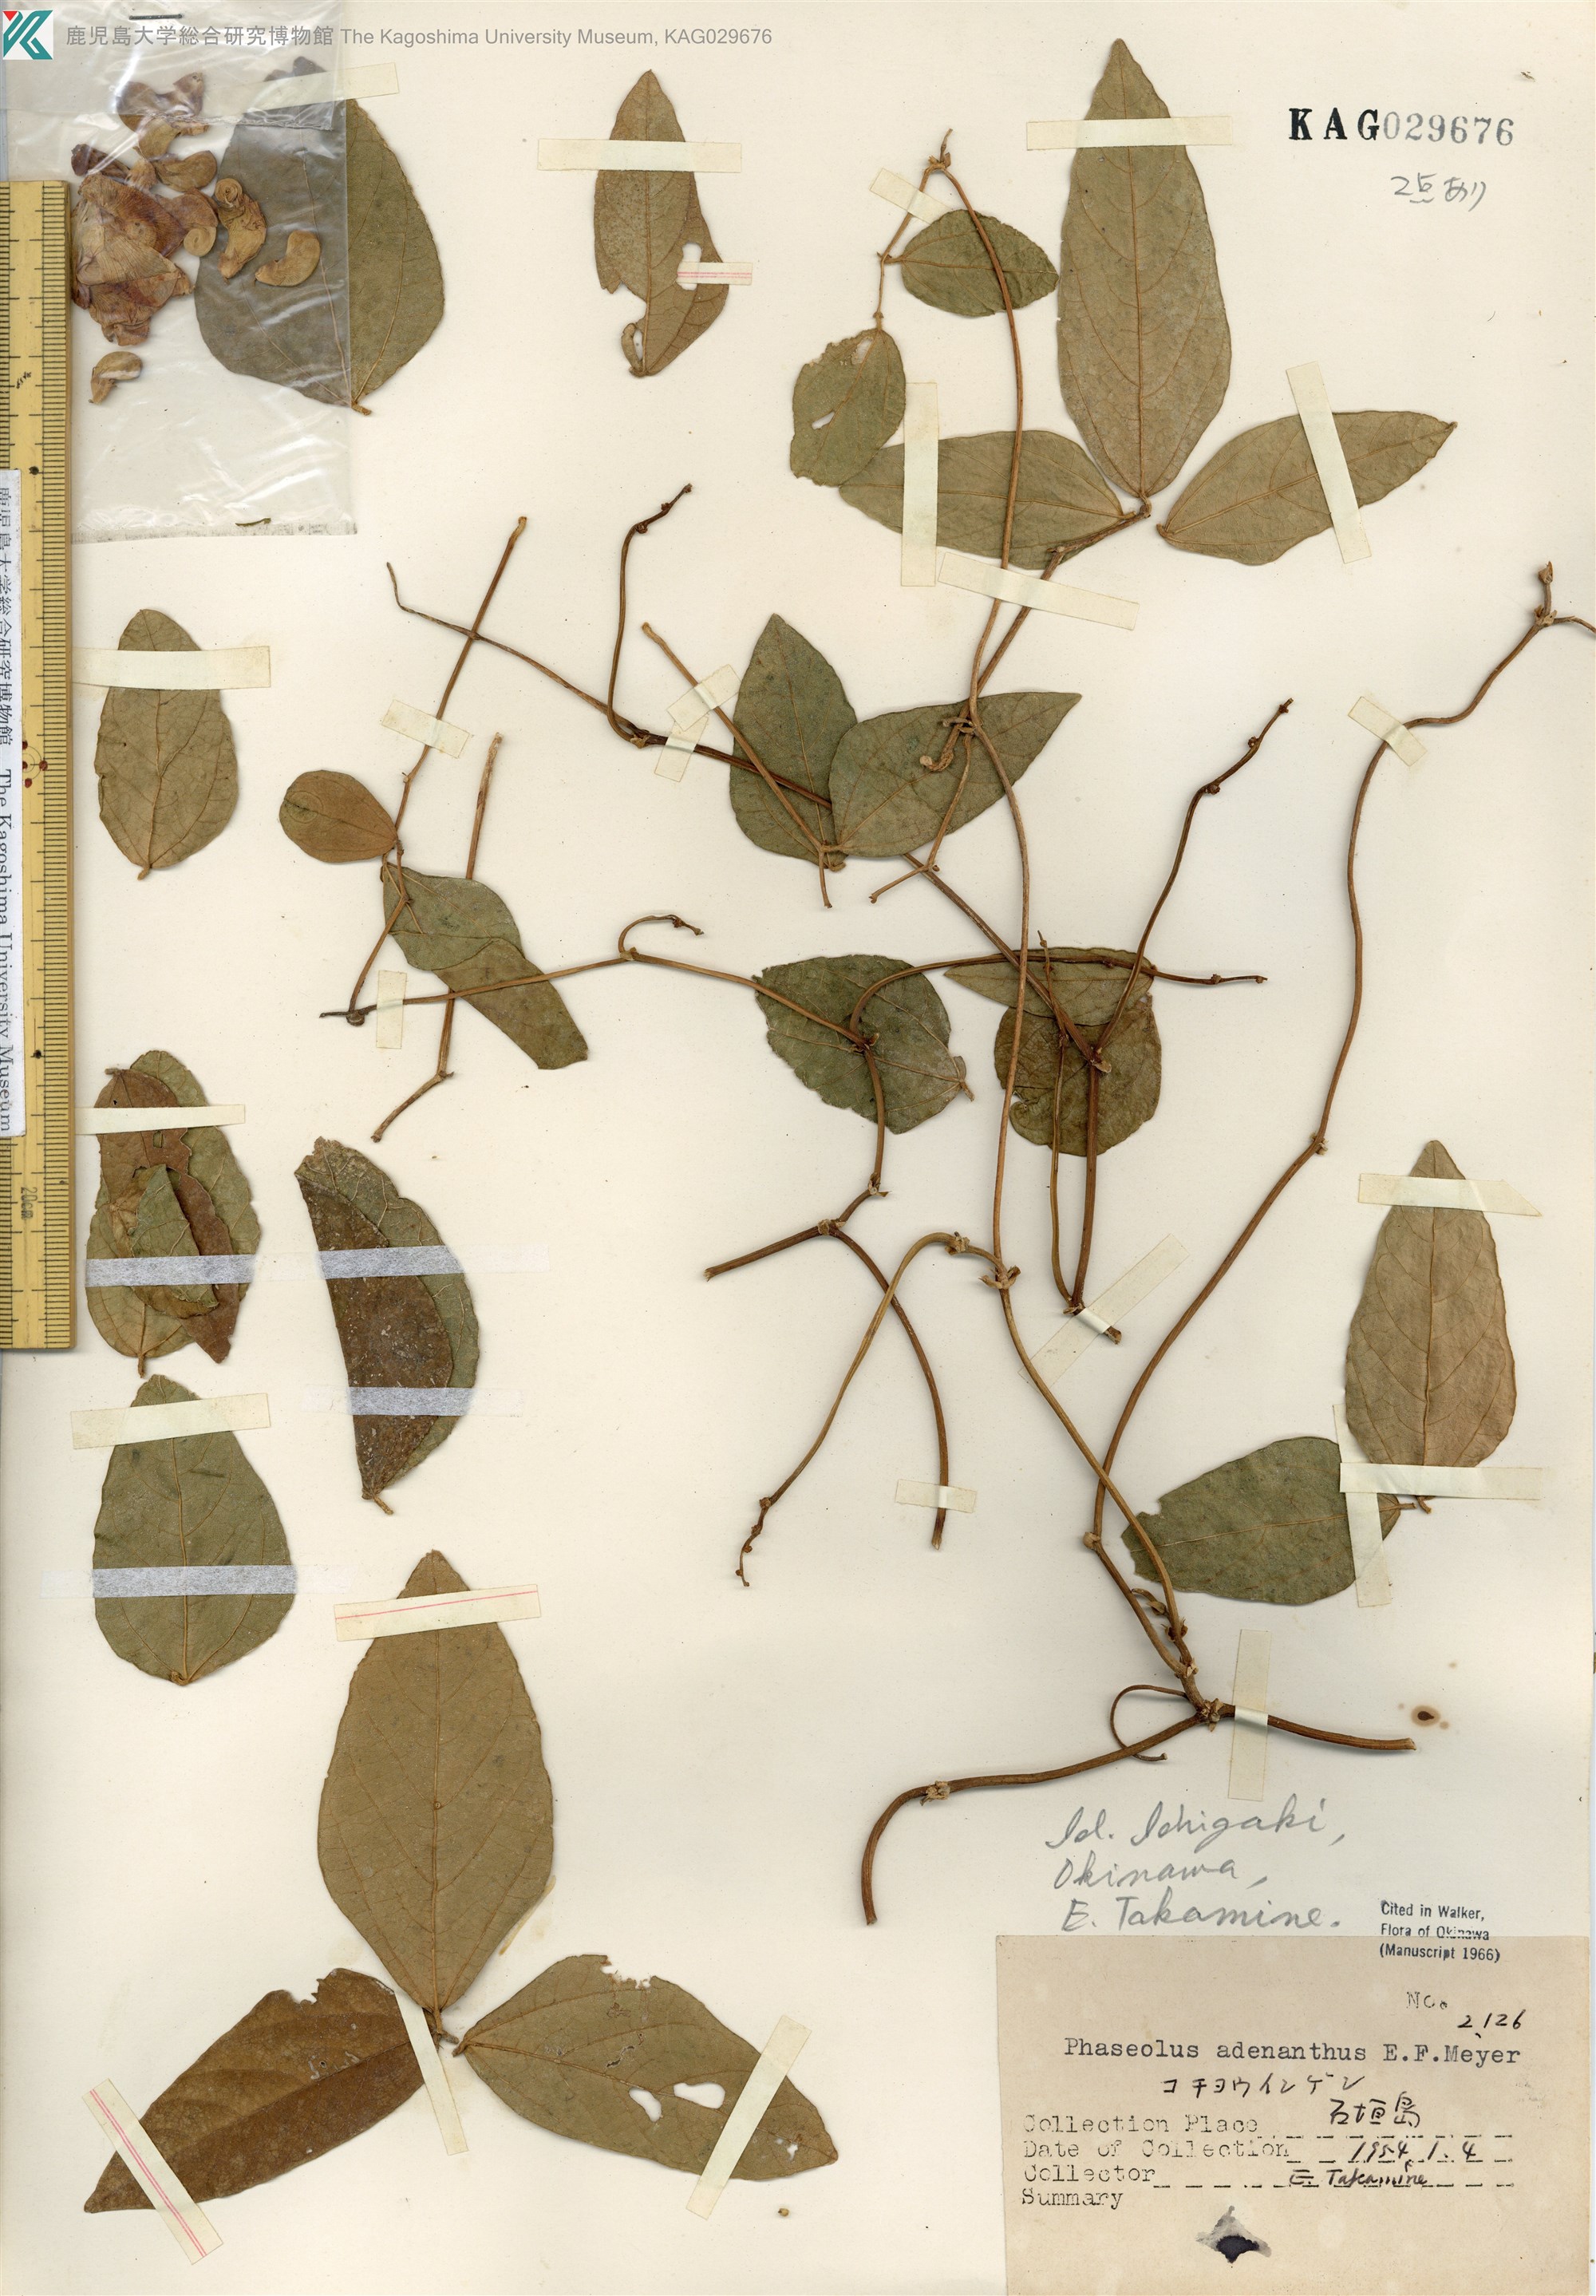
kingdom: Plantae
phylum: Tracheophyta
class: Magnoliopsida
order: Fabales
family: Fabaceae
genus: Leptospron
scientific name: Leptospron adenanthum
